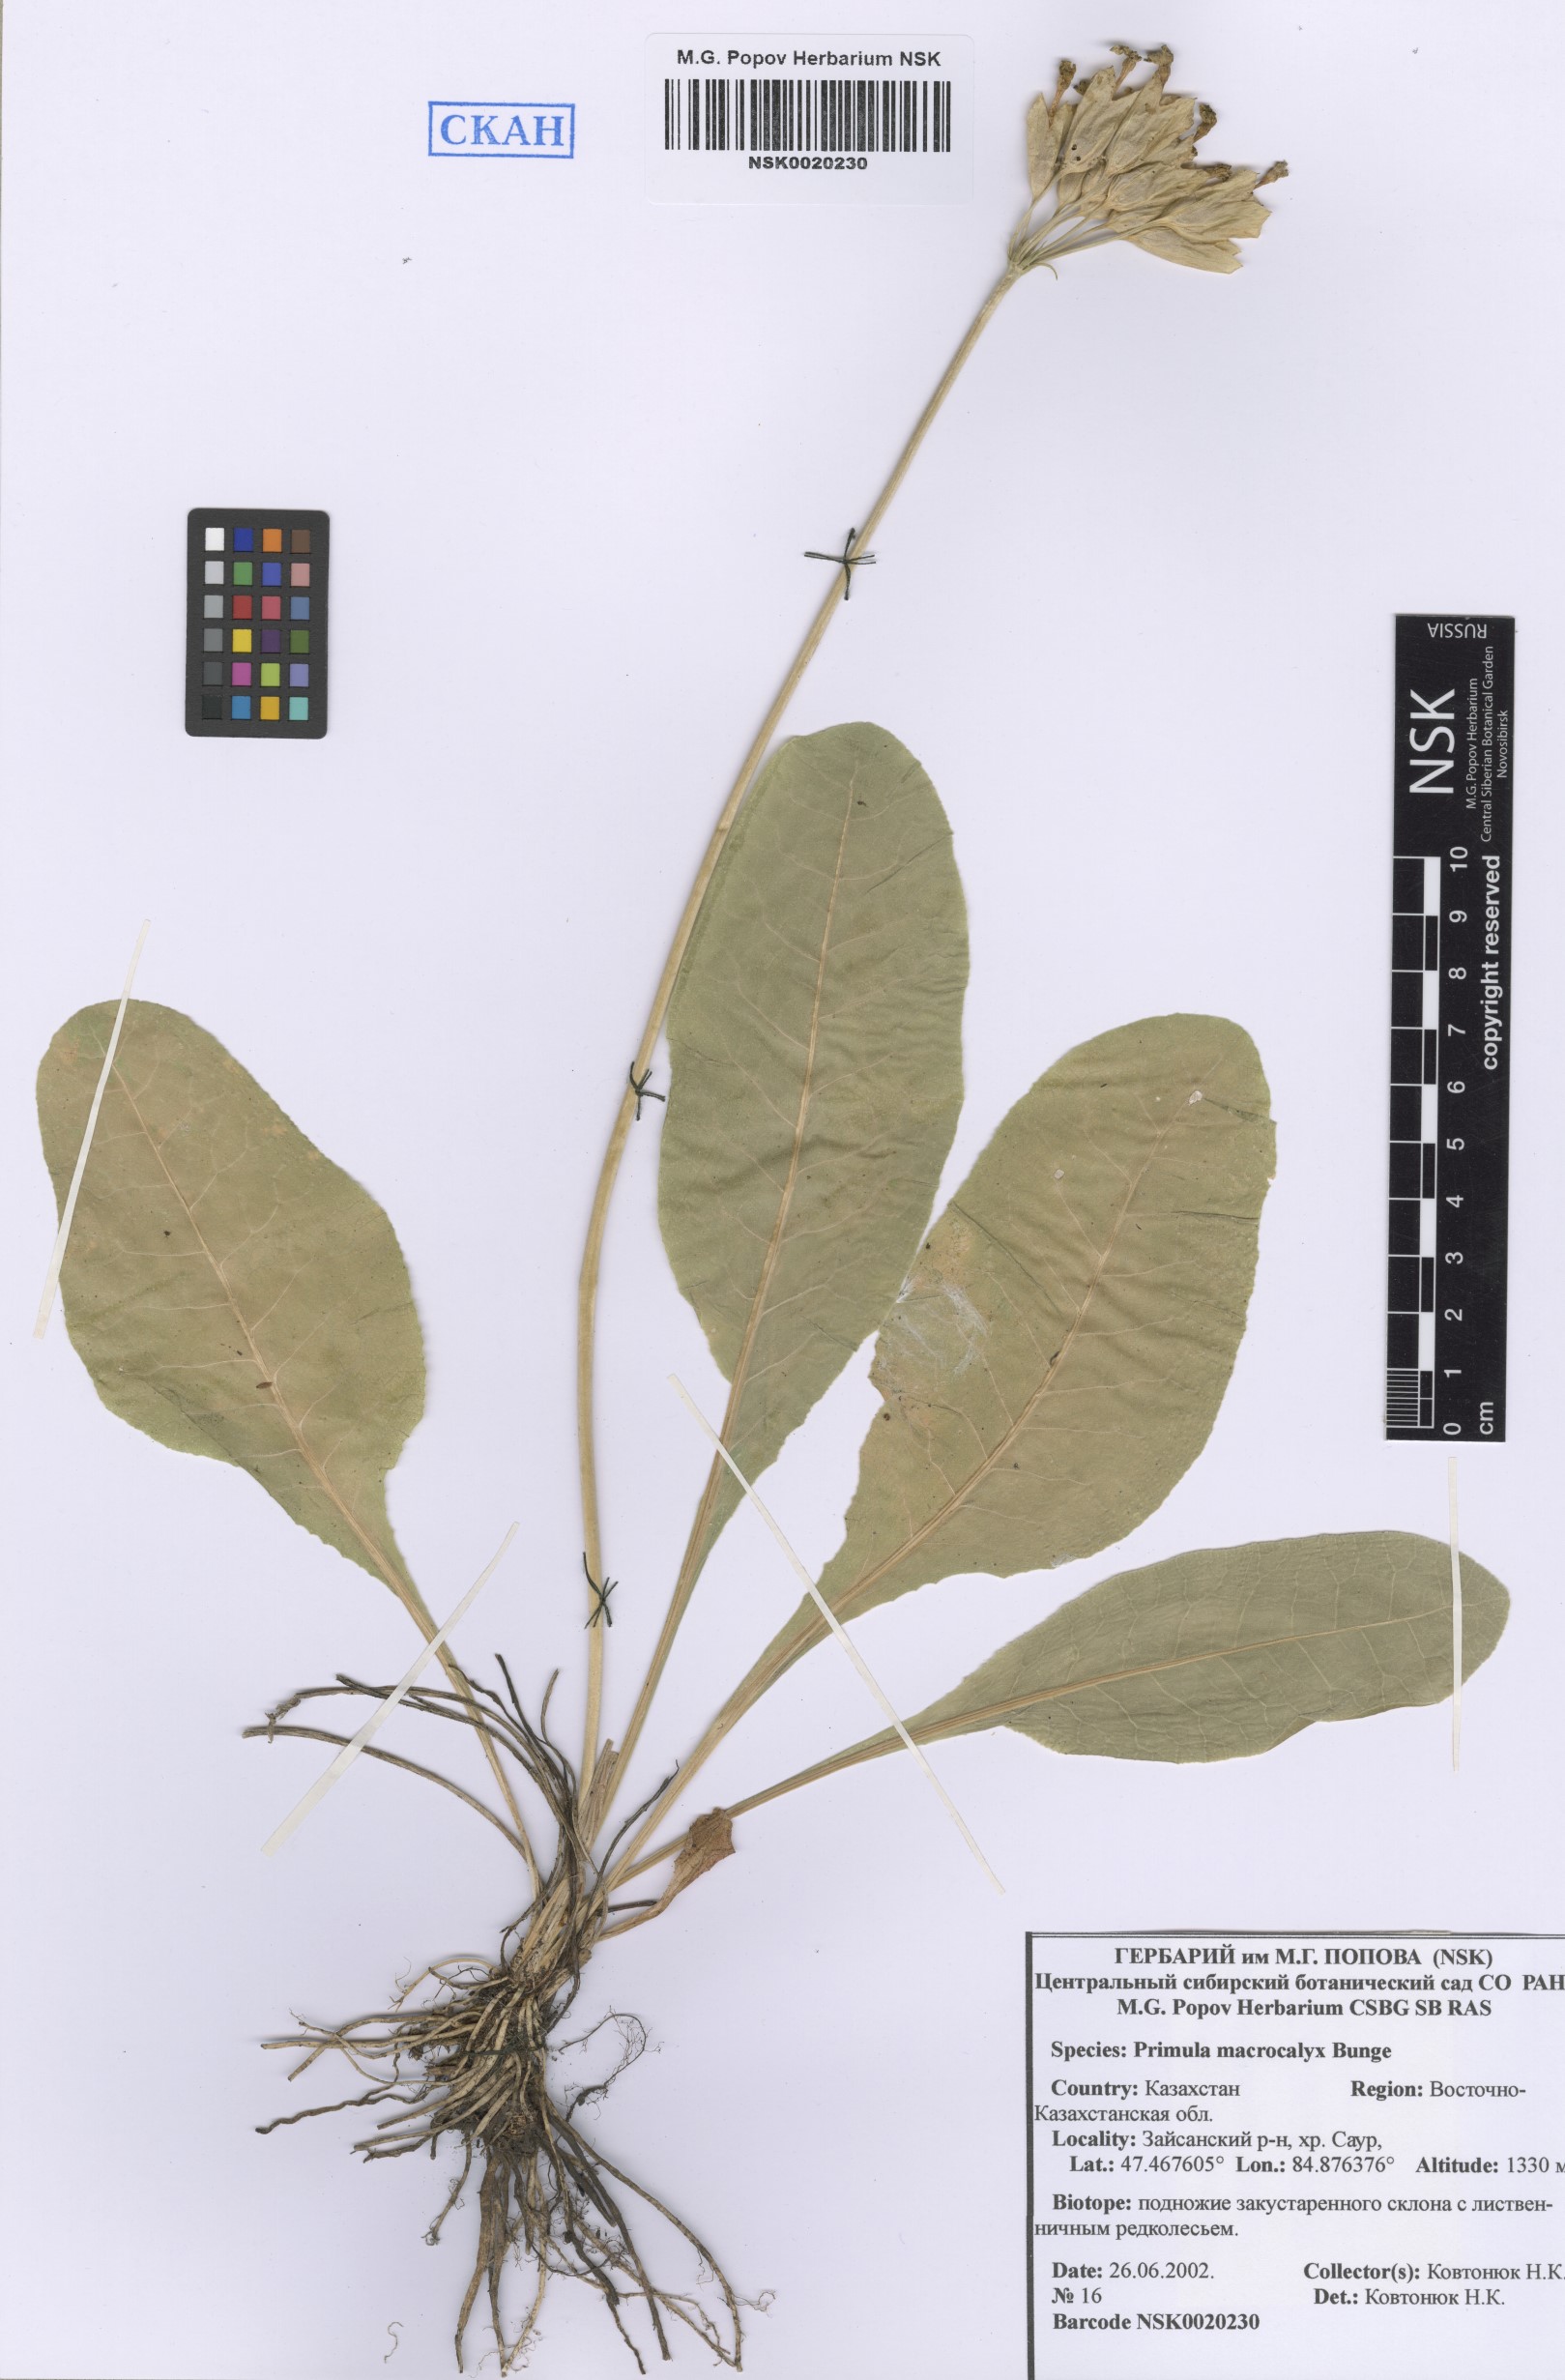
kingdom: Plantae
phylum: Tracheophyta
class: Magnoliopsida
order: Ericales
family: Primulaceae
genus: Primula
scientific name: Primula veris
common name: Cowslip
